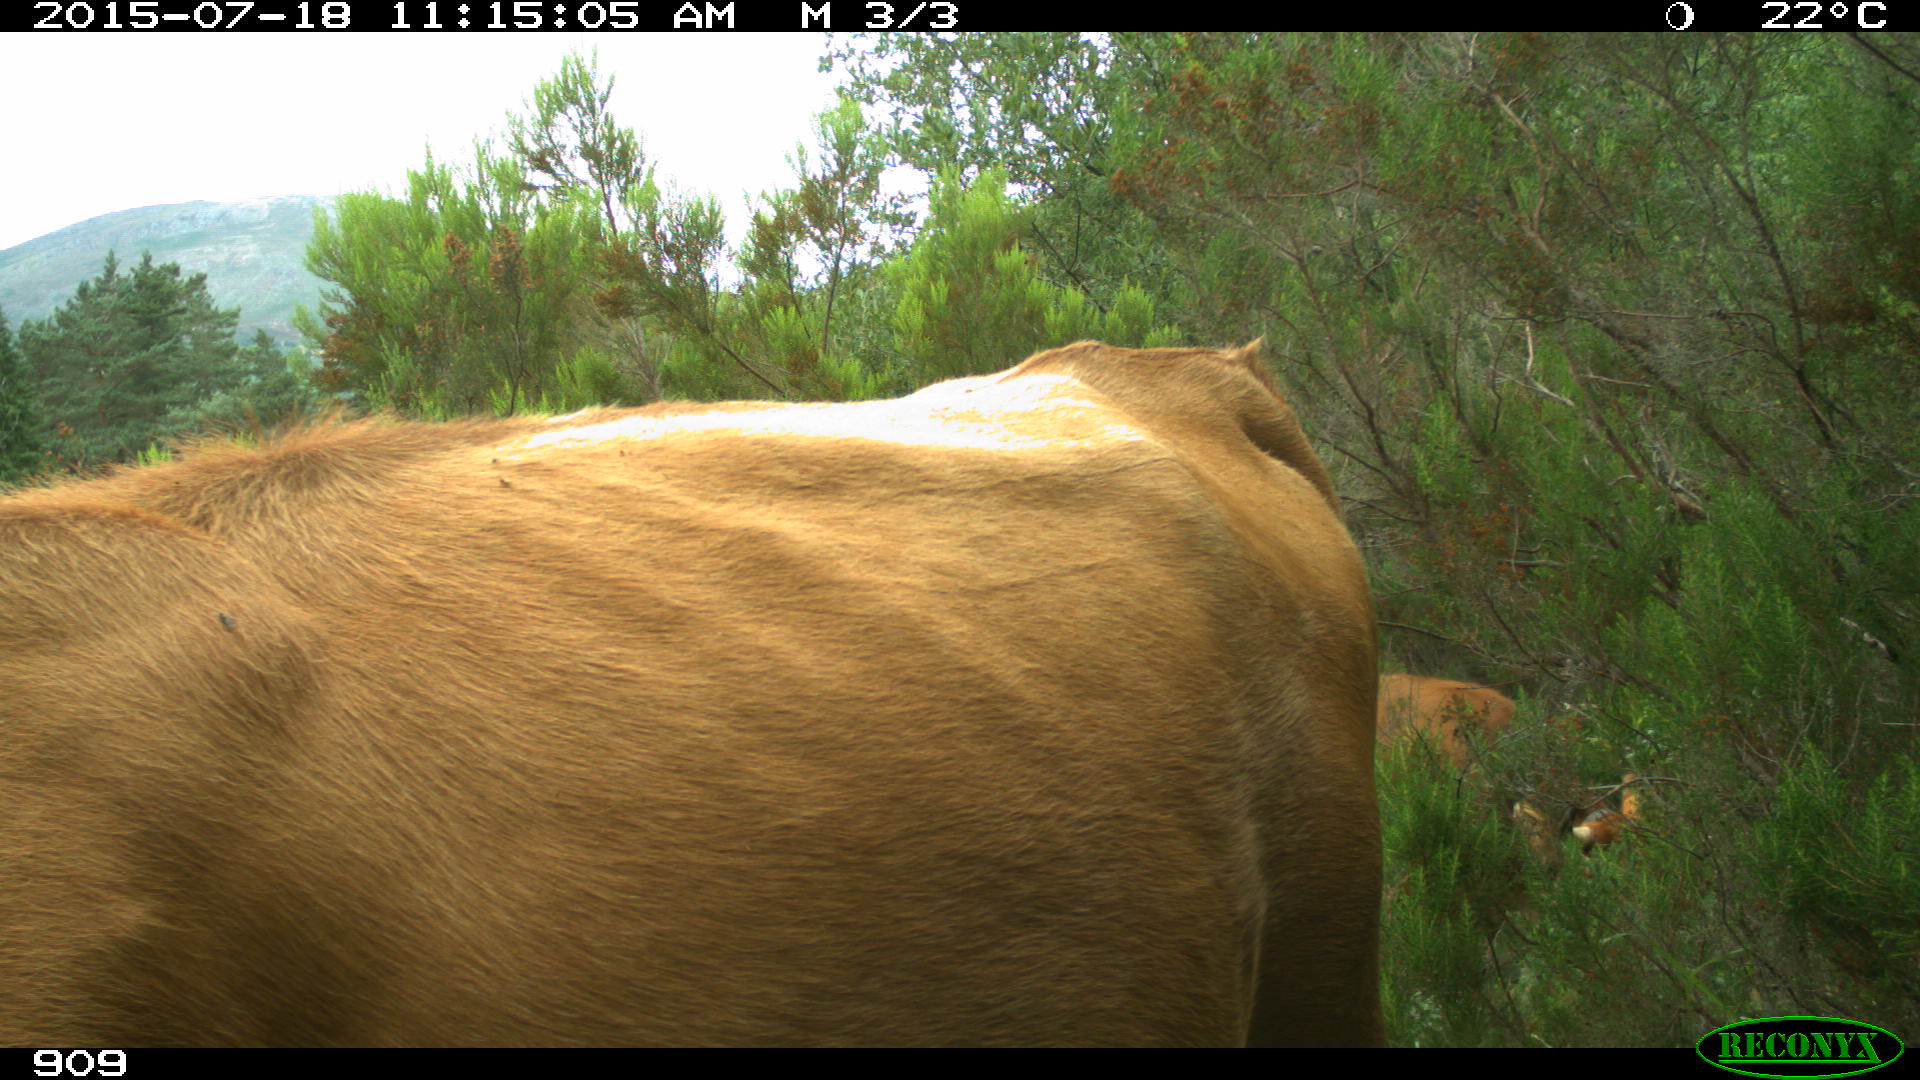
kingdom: Animalia
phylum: Chordata
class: Mammalia
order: Artiodactyla
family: Bovidae
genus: Bos
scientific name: Bos taurus
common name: Domesticated cattle
